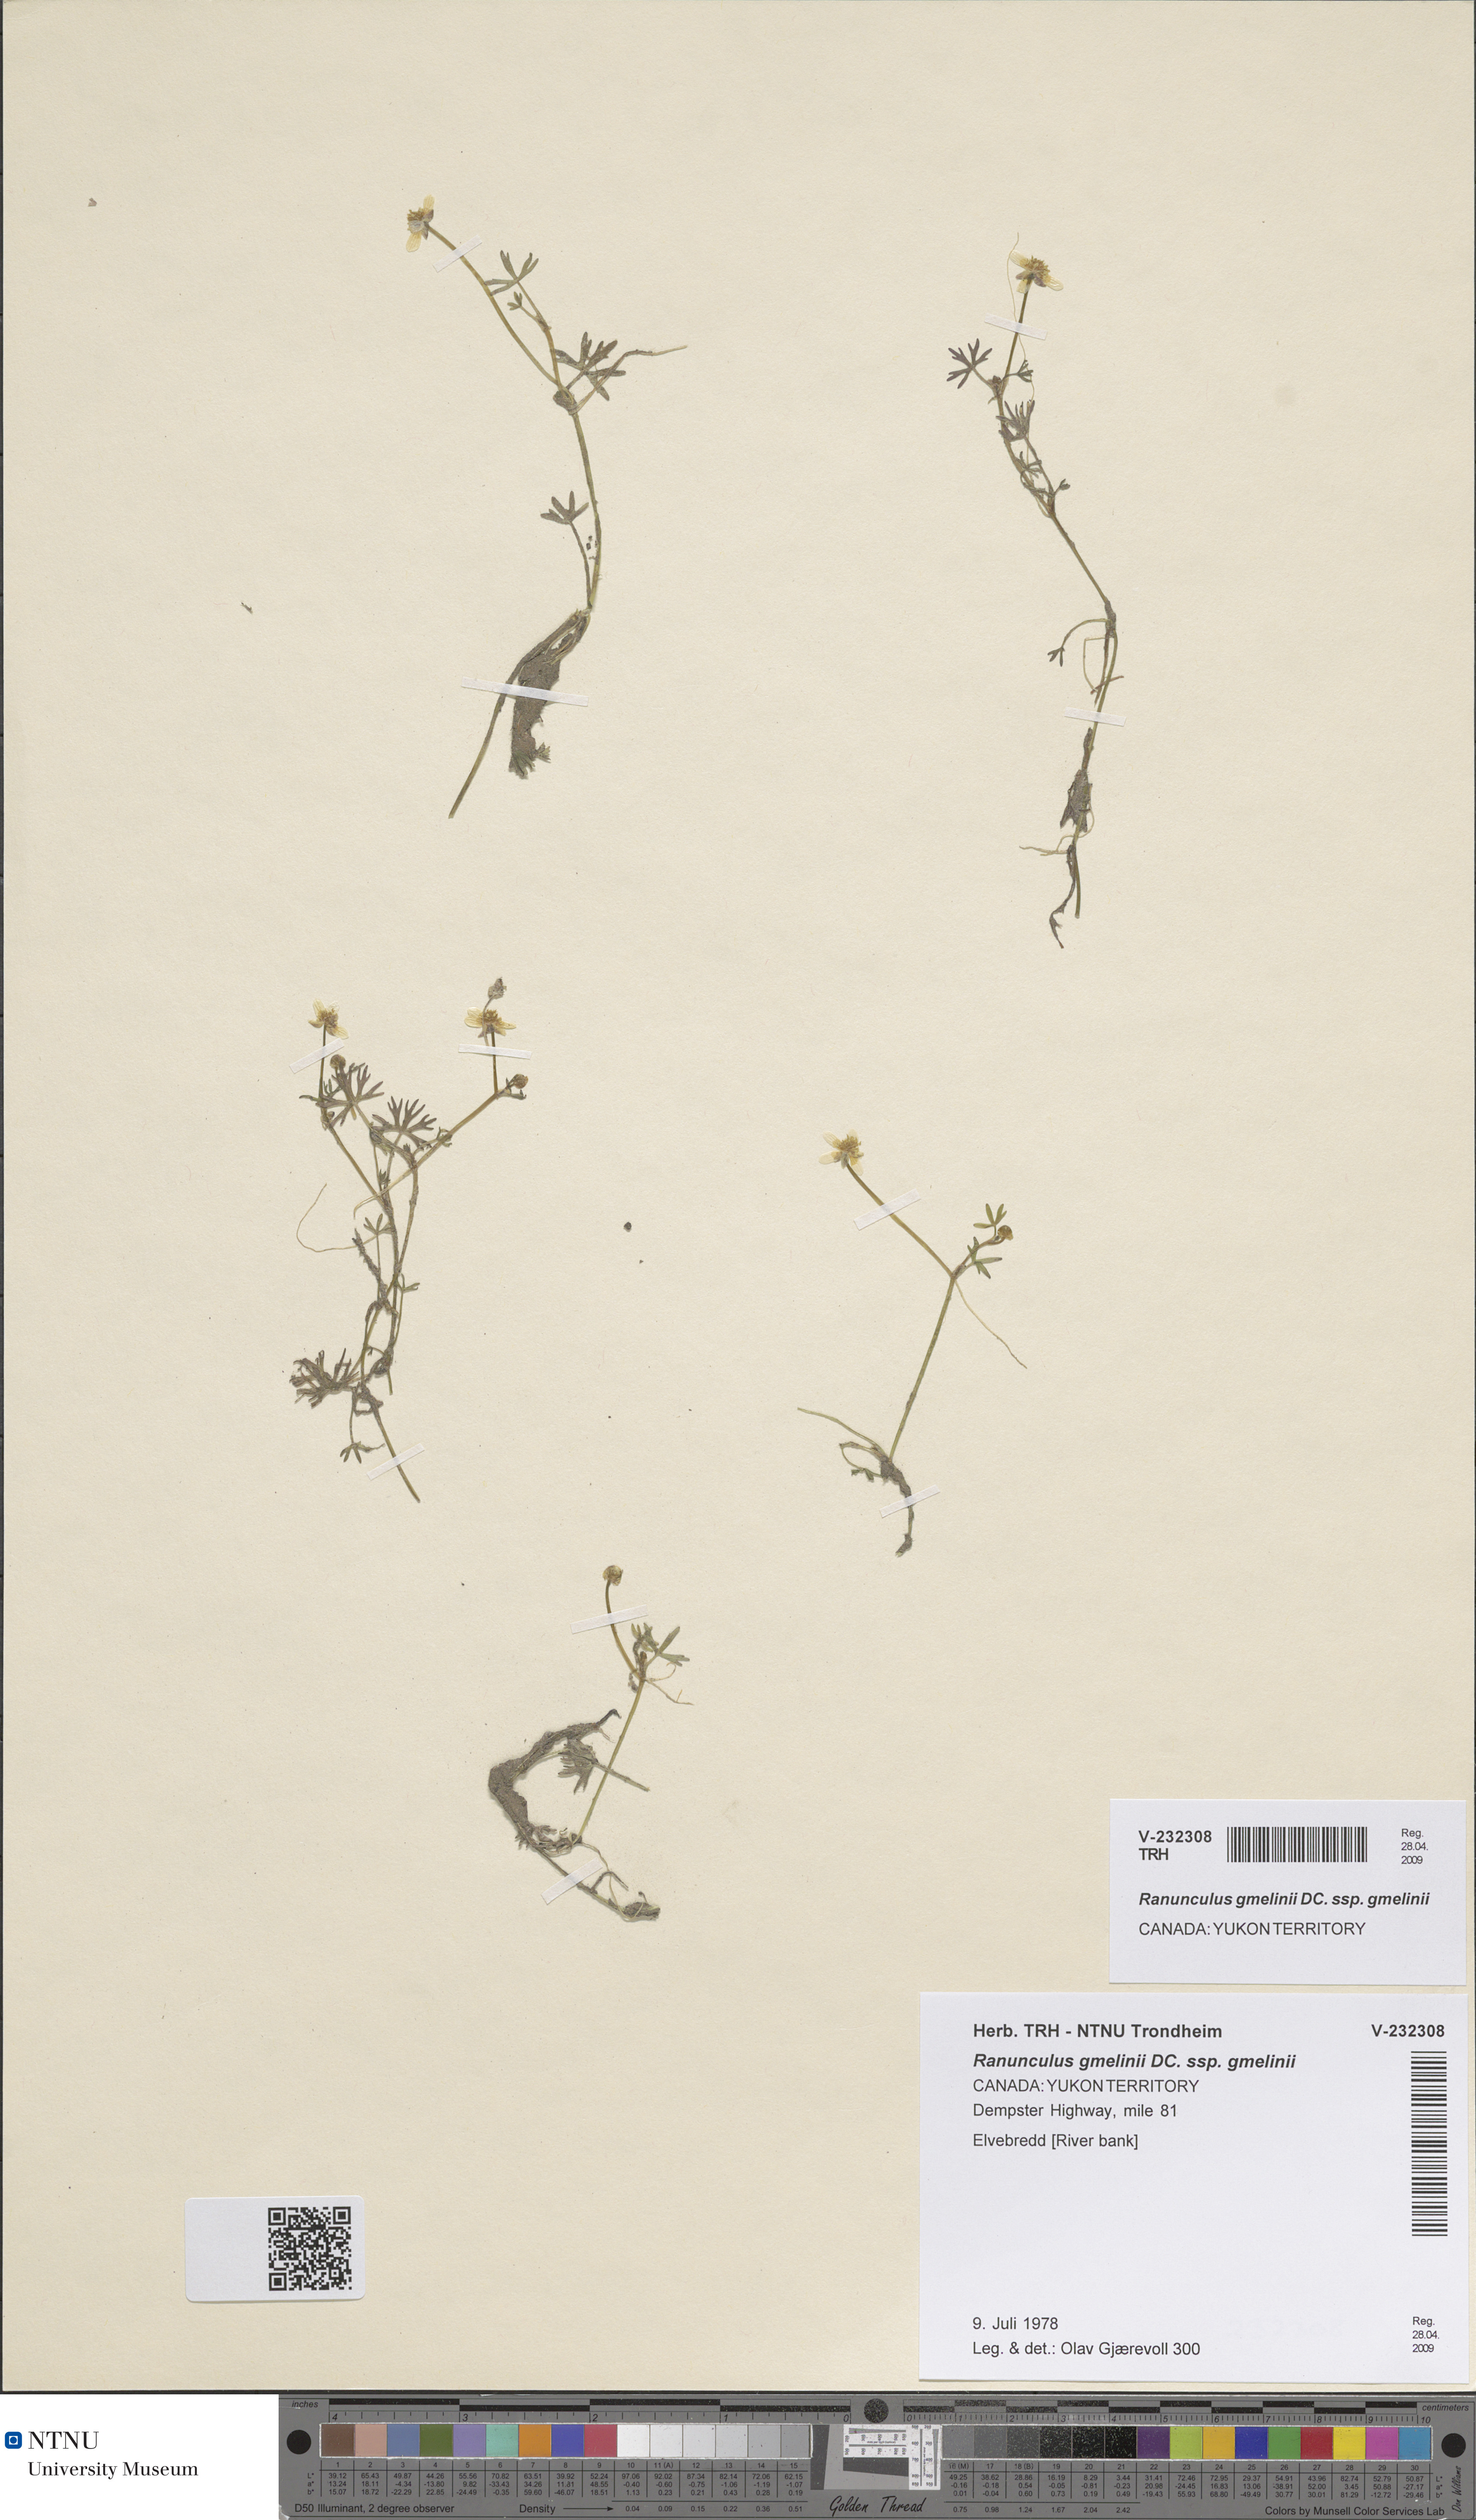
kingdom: Plantae
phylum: Tracheophyta
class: Magnoliopsida
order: Ranunculales
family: Ranunculaceae
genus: Ranunculus
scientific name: Ranunculus gmelinii
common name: Gmelin's buttercup
